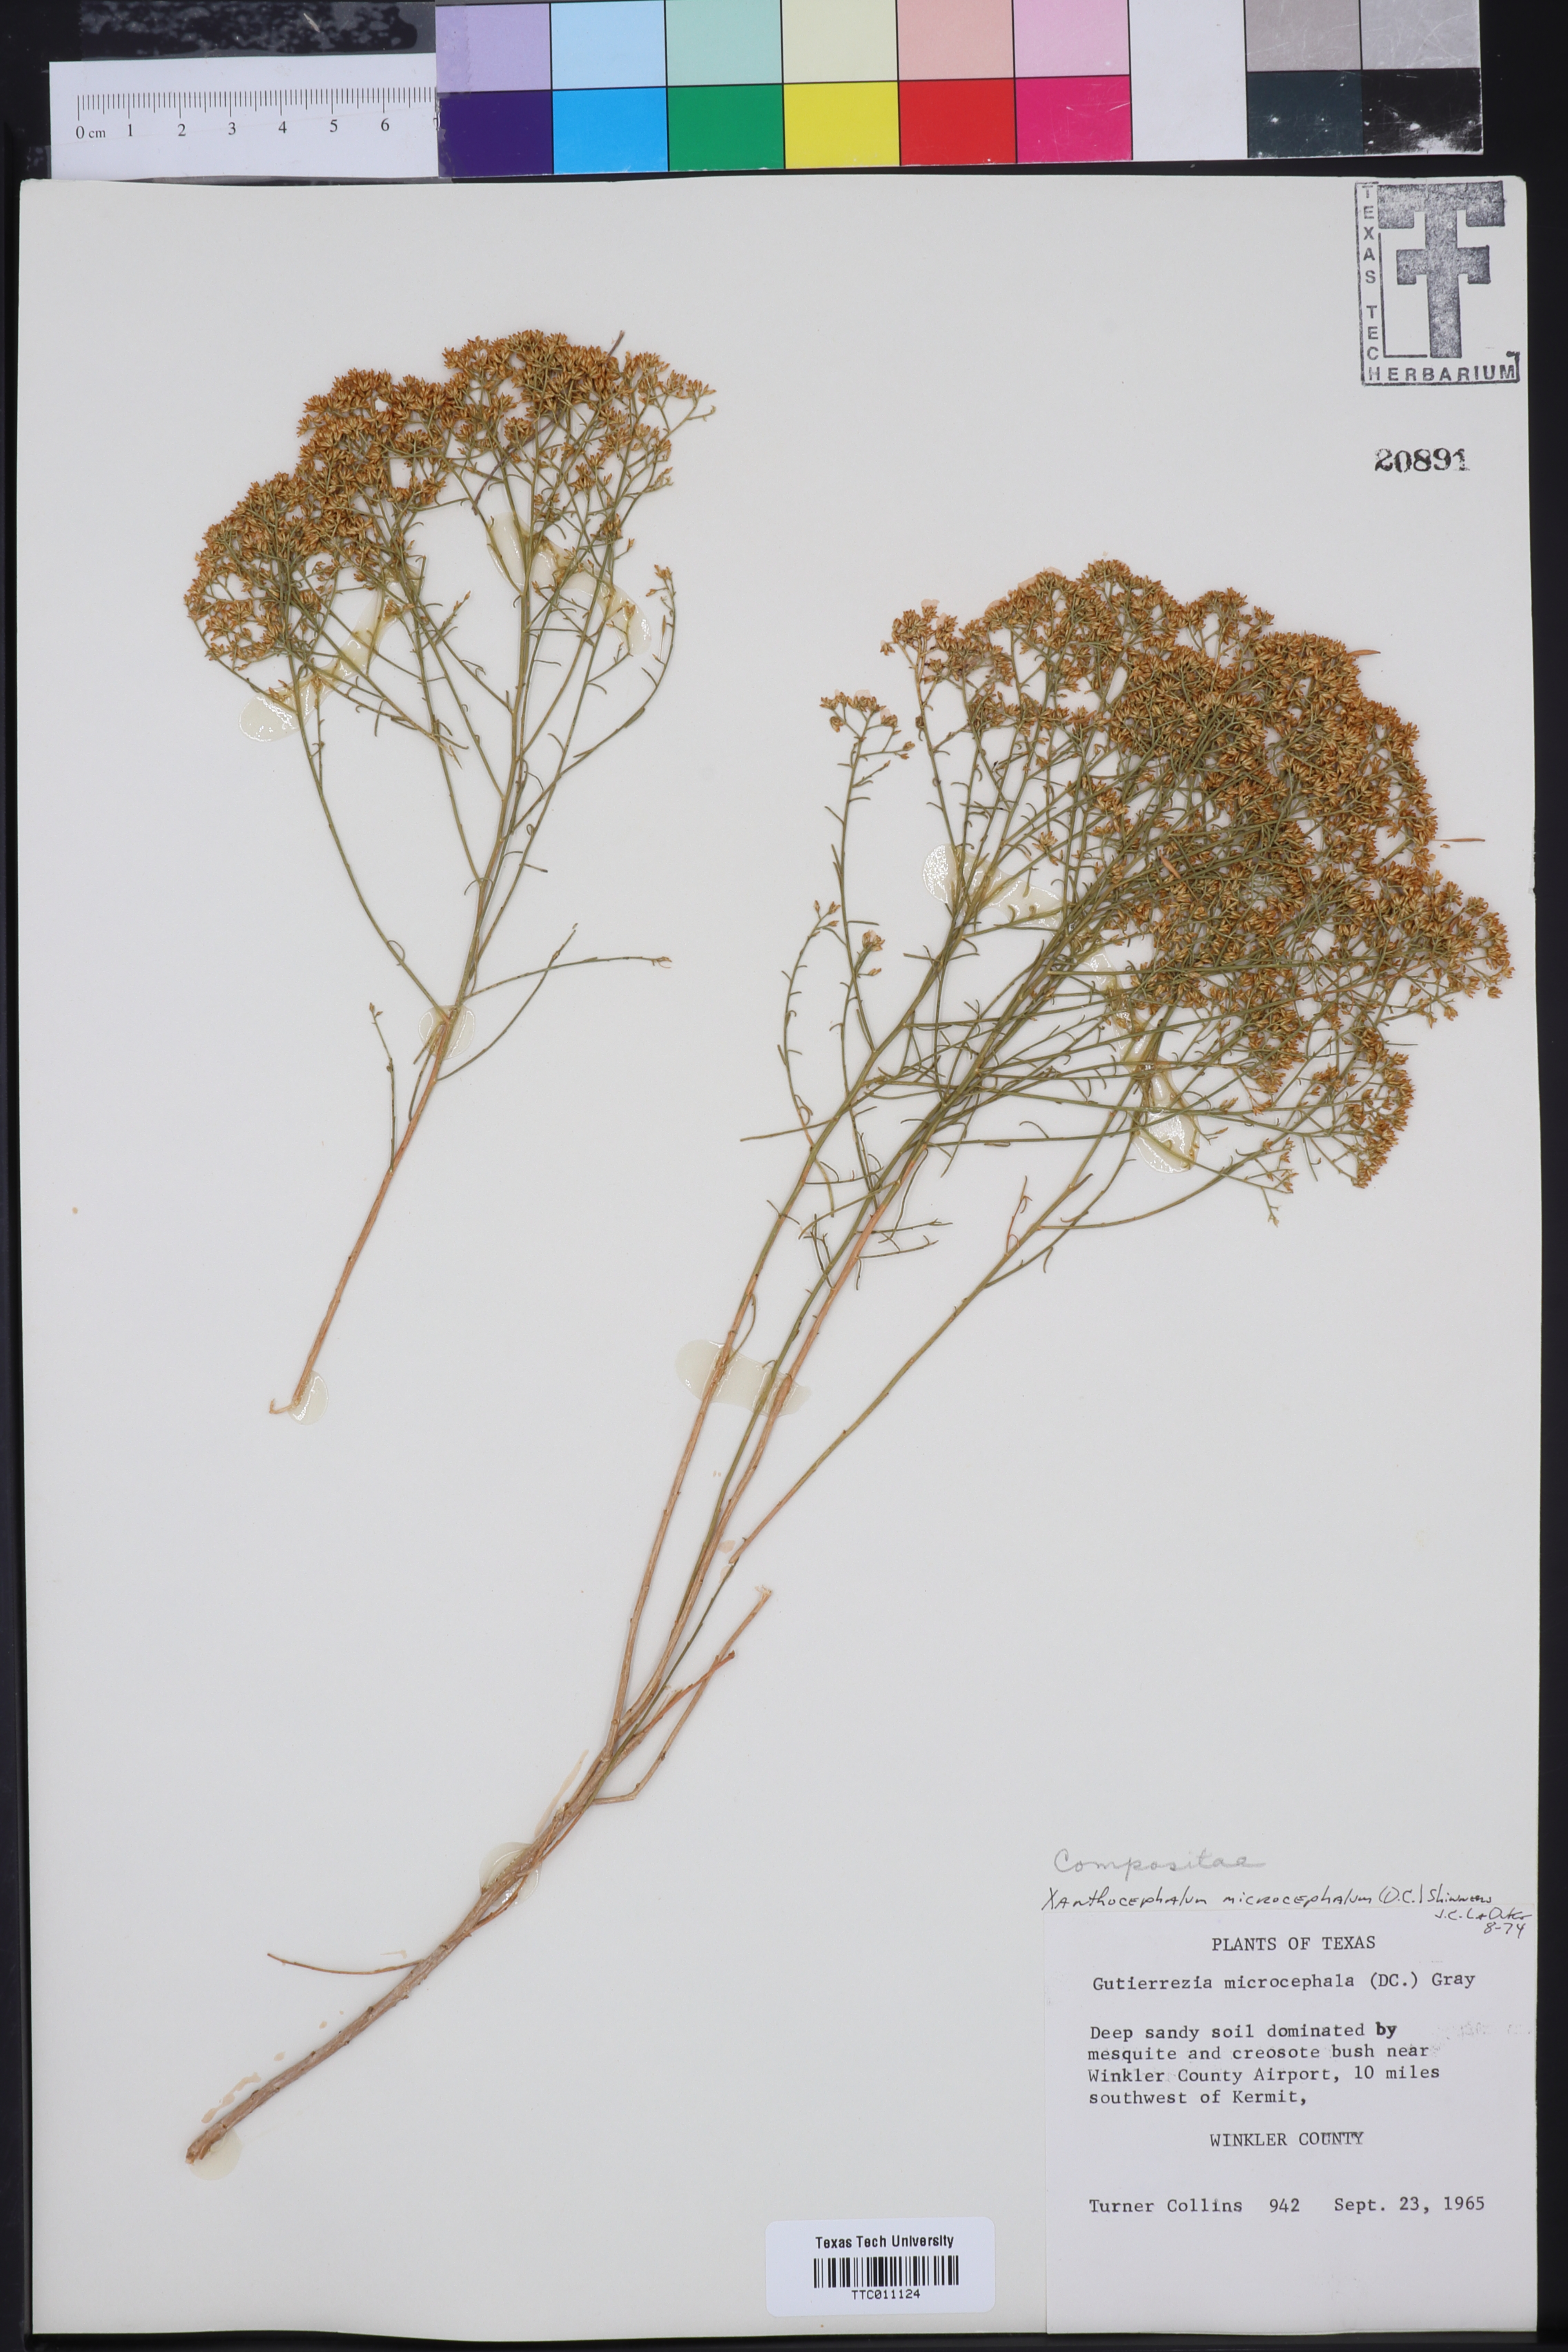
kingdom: Plantae
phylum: Tracheophyta
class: Magnoliopsida
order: Asterales
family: Asteraceae
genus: Gutierrezia
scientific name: Gutierrezia microcephala
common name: Thread snakeweed
